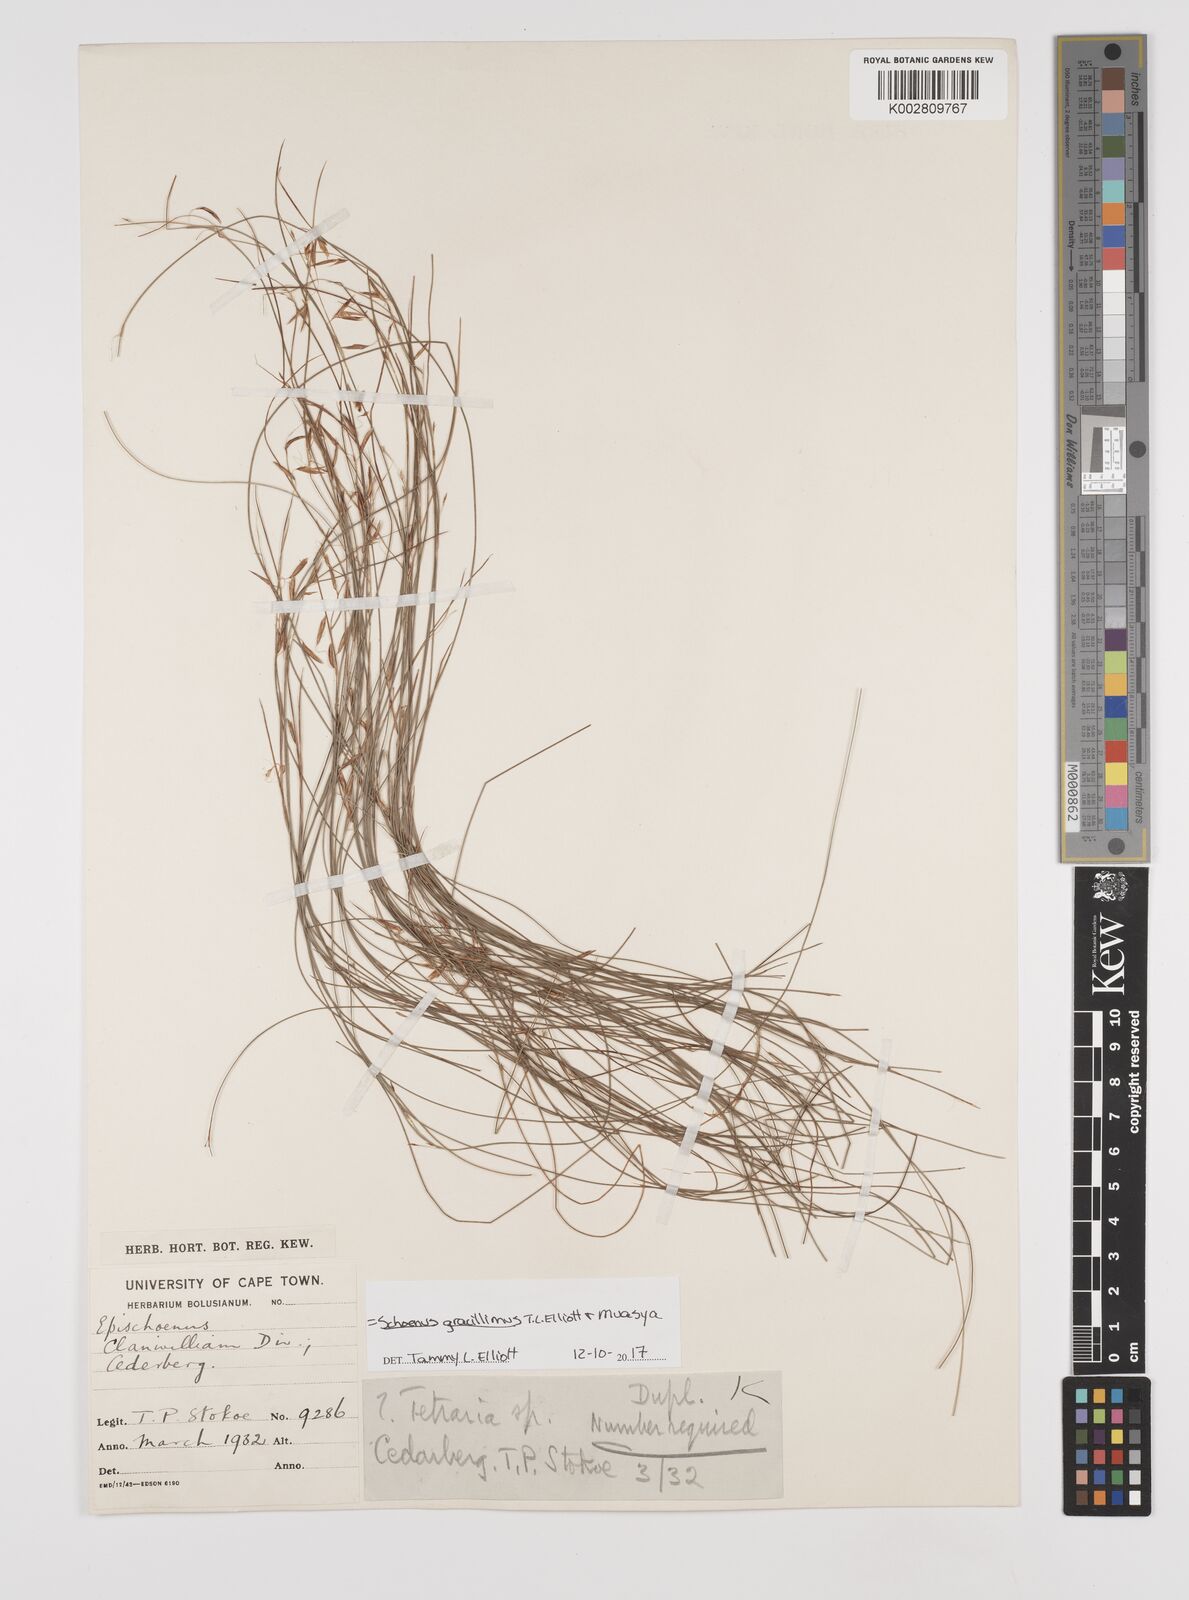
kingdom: Plantae
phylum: Tracheophyta
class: Liliopsida
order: Poales
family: Cyperaceae
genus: Rhynchospora
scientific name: Rhynchospora racemosa
